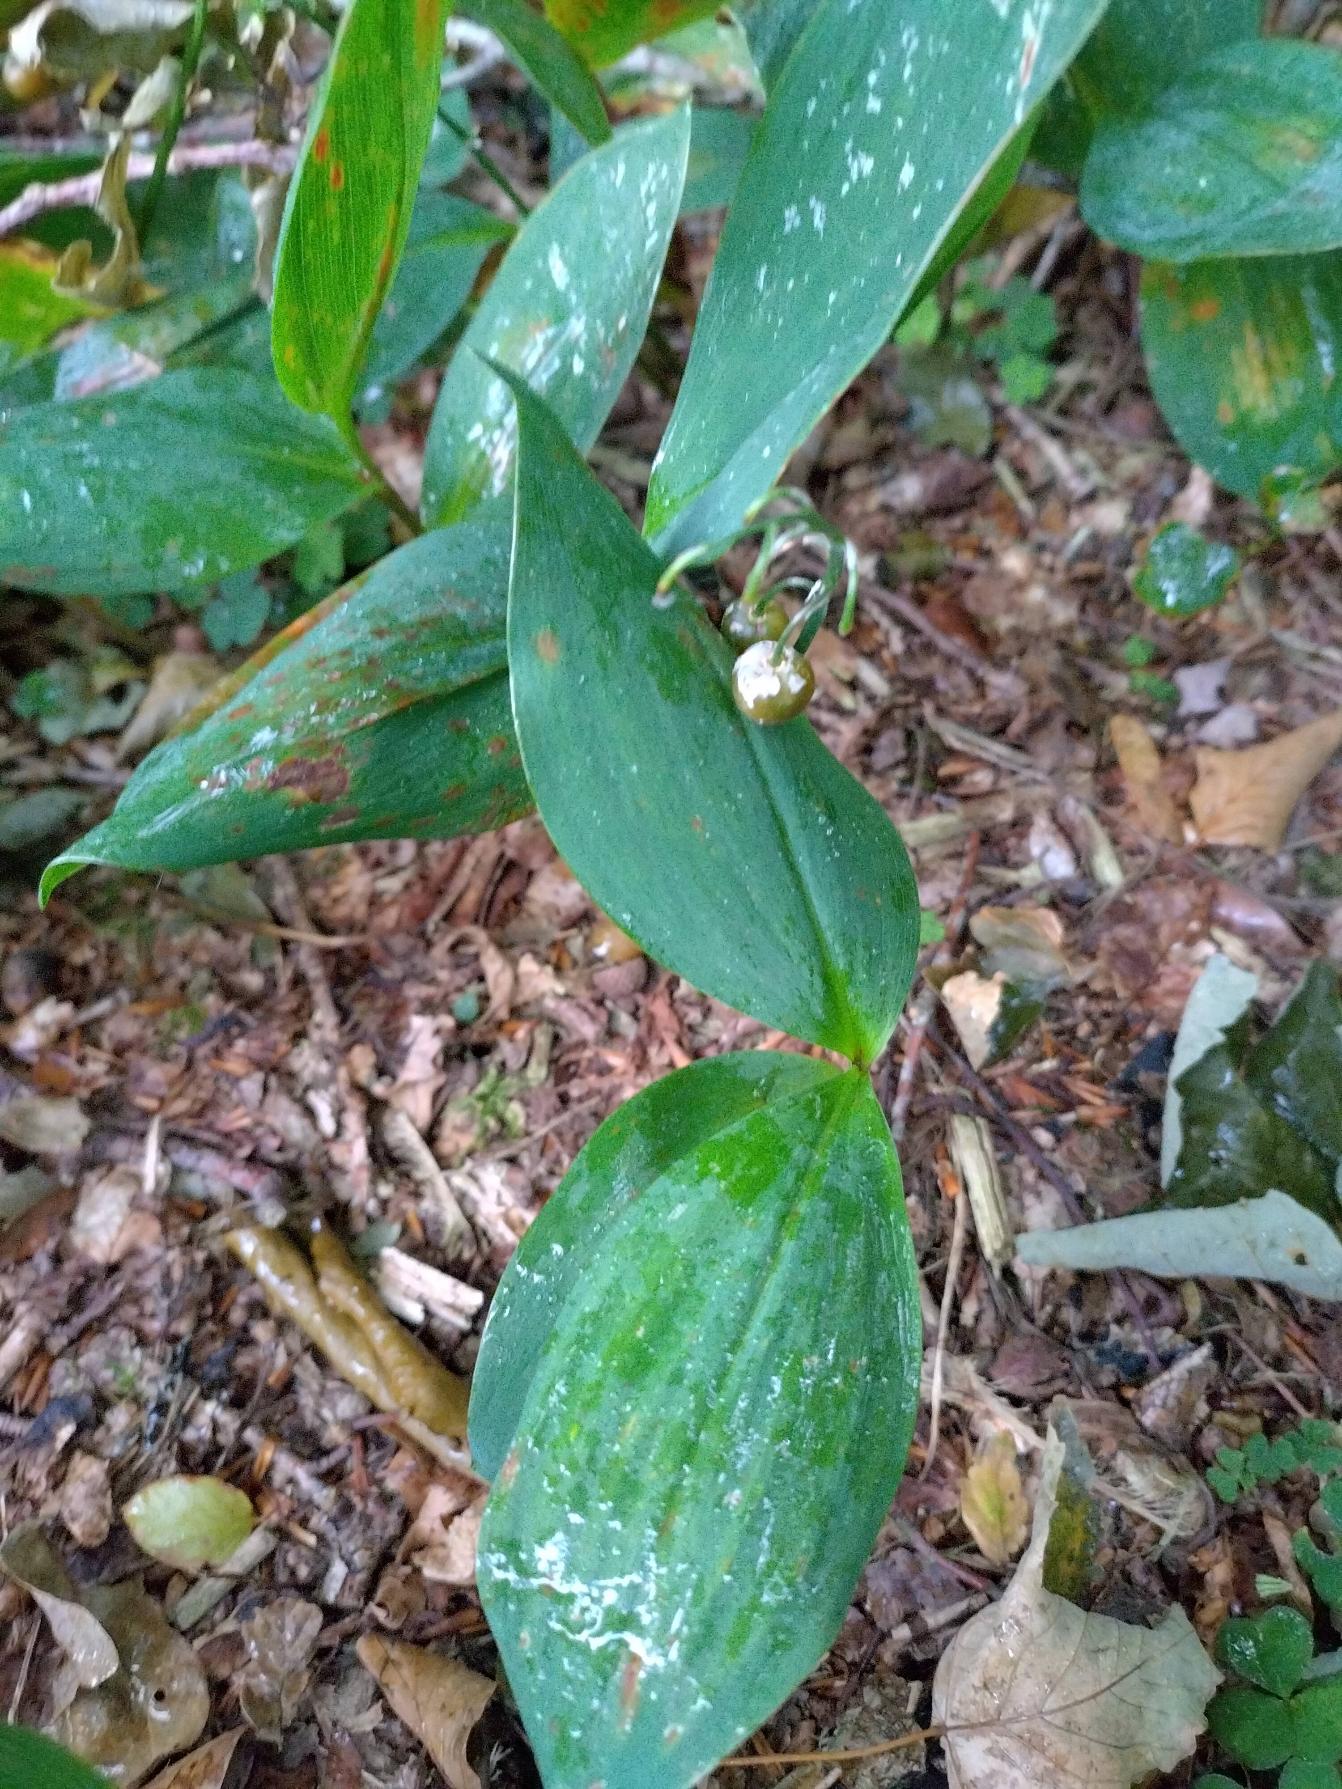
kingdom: Plantae
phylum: Tracheophyta
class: Liliopsida
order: Asparagales
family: Asparagaceae
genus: Convallaria
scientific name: Convallaria majalis
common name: Liljekonval
